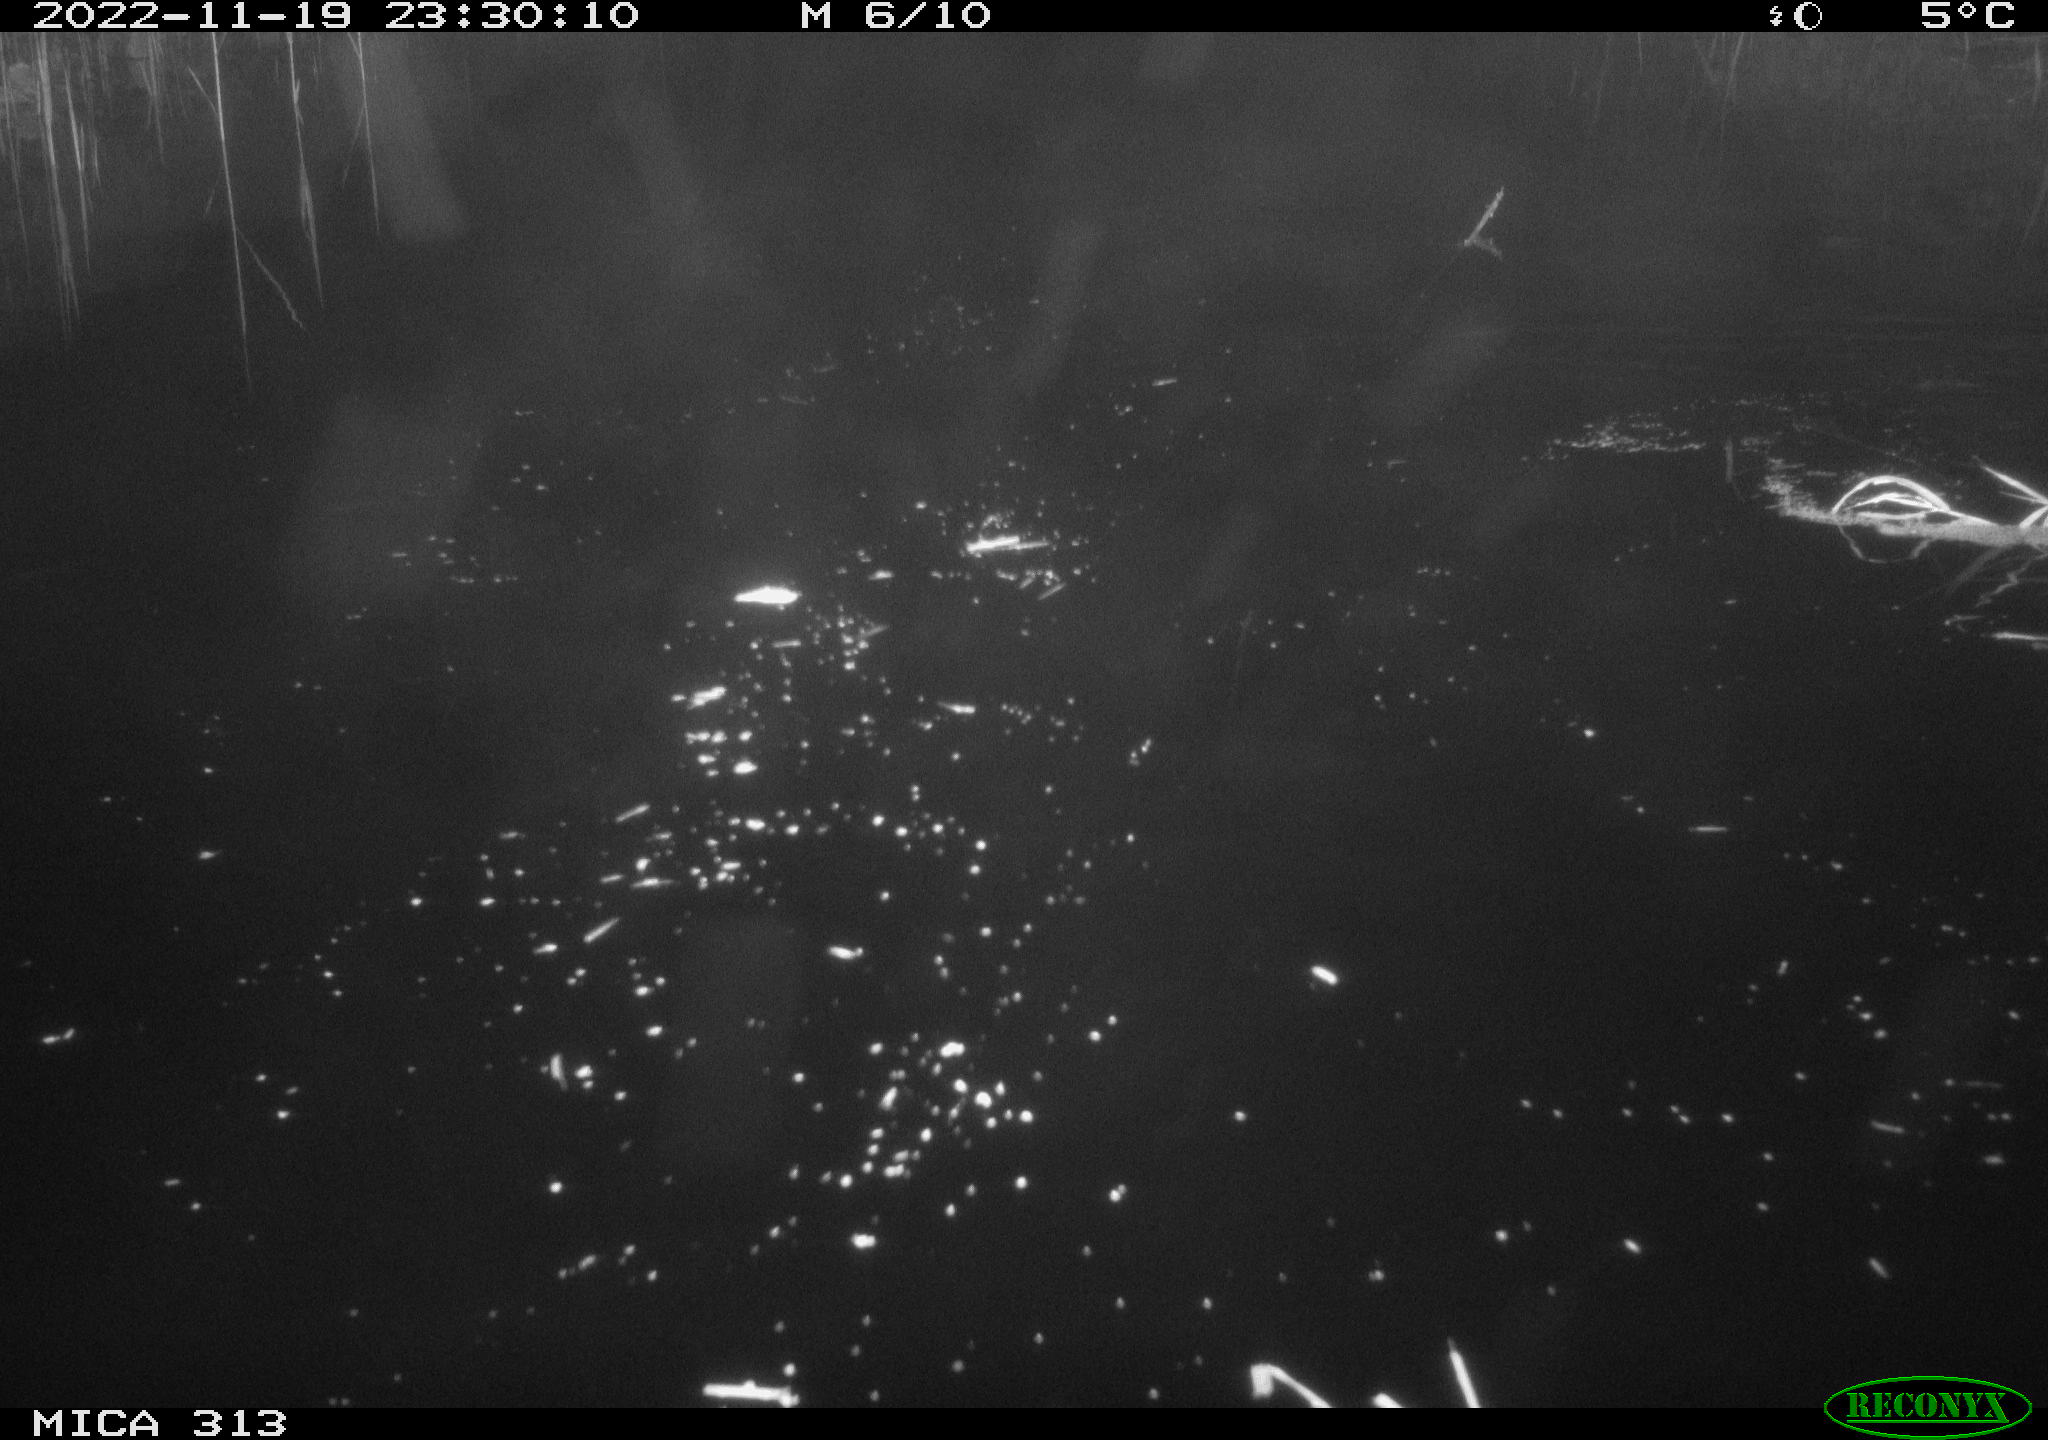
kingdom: Animalia
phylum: Chordata
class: Mammalia
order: Rodentia
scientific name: Rodentia
